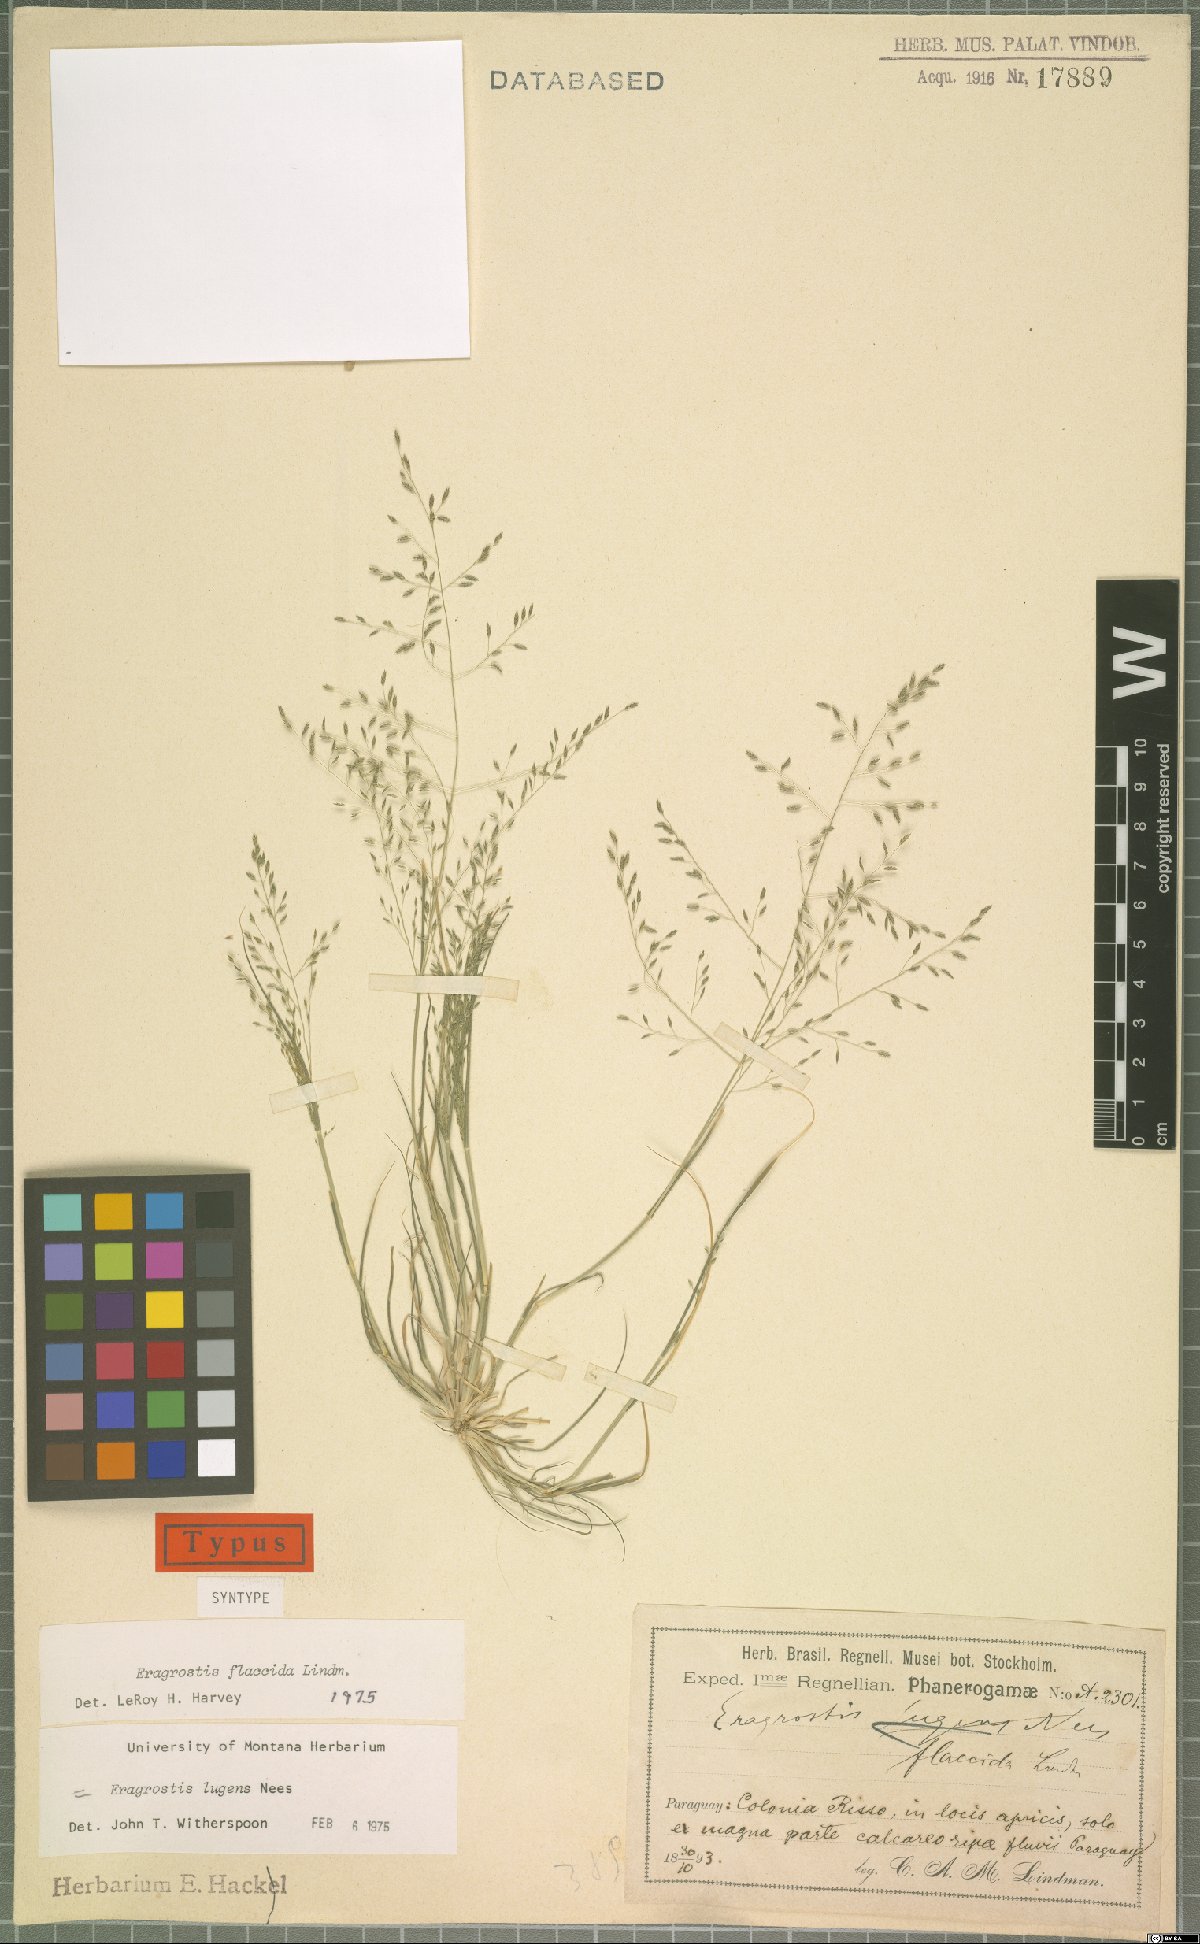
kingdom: Plantae
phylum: Tracheophyta
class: Liliopsida
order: Poales
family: Poaceae
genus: Eragrostis
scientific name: Eragrostis lugens
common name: Mourning love grass
